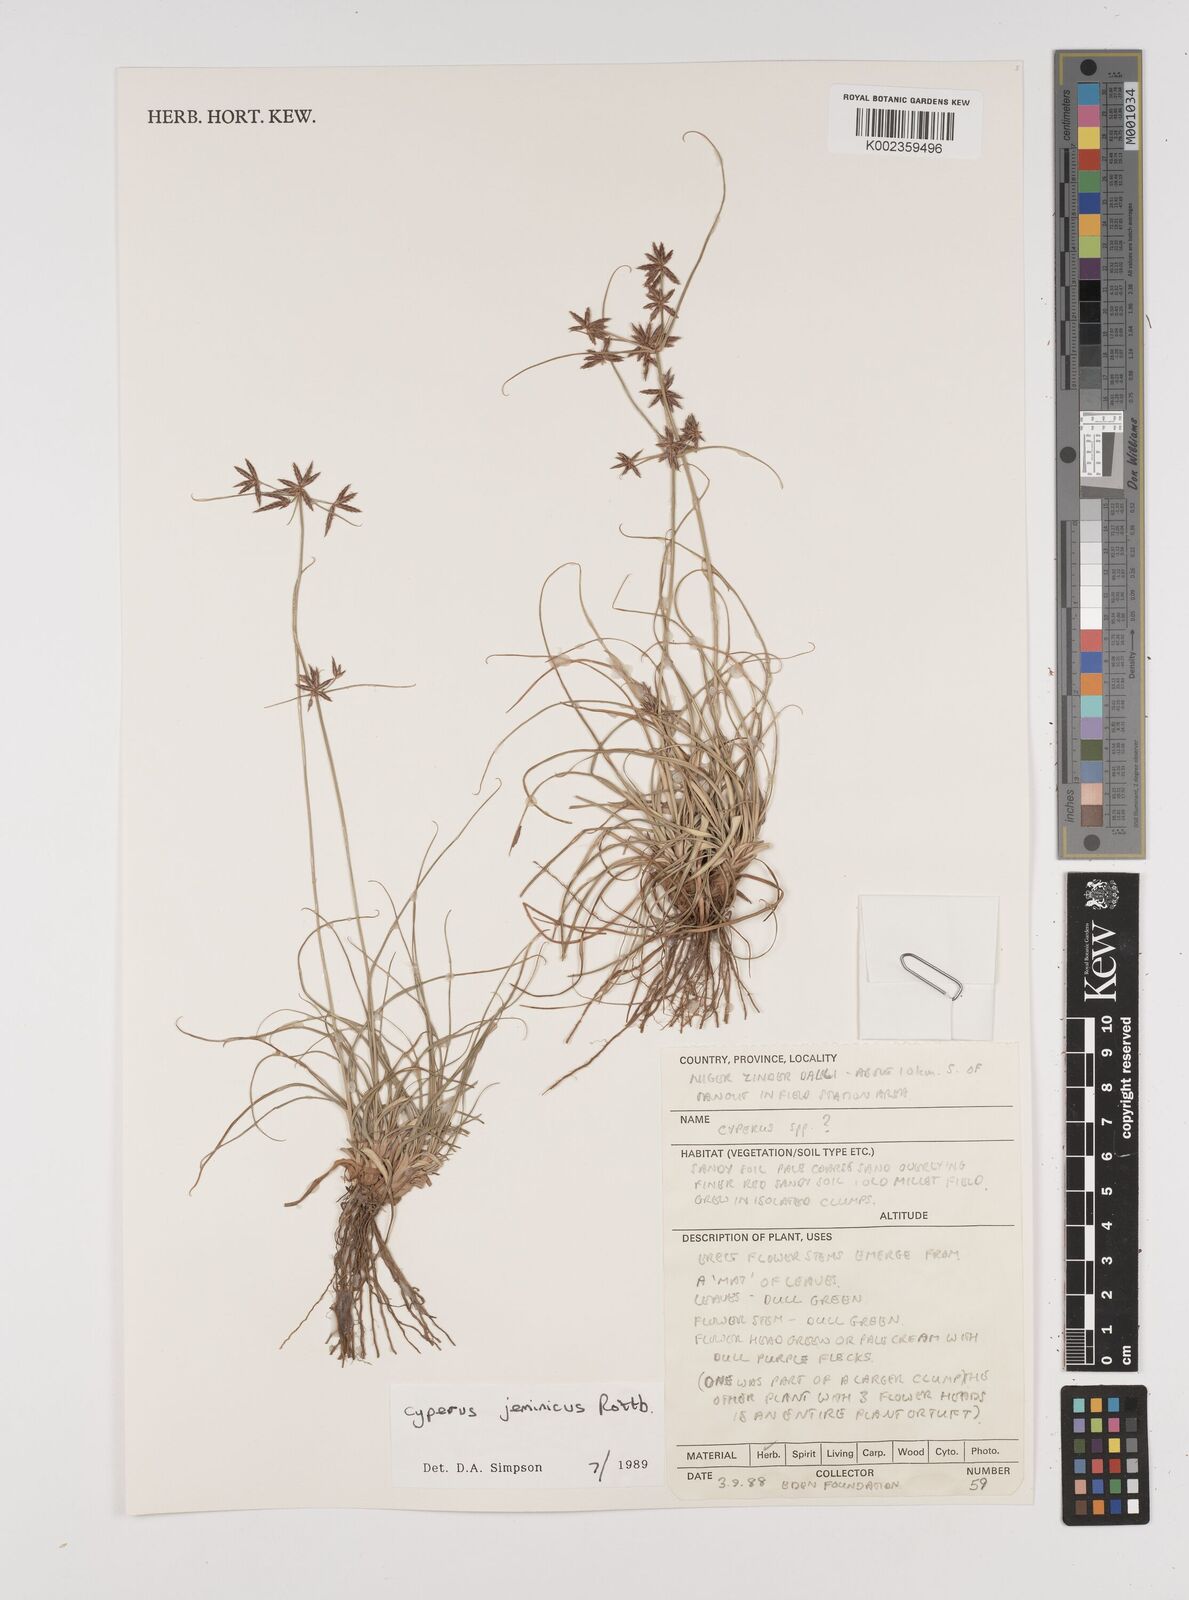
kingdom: Plantae
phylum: Tracheophyta
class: Liliopsida
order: Poales
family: Cyperaceae
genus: Cyperus
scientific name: Cyperus jeminicus
